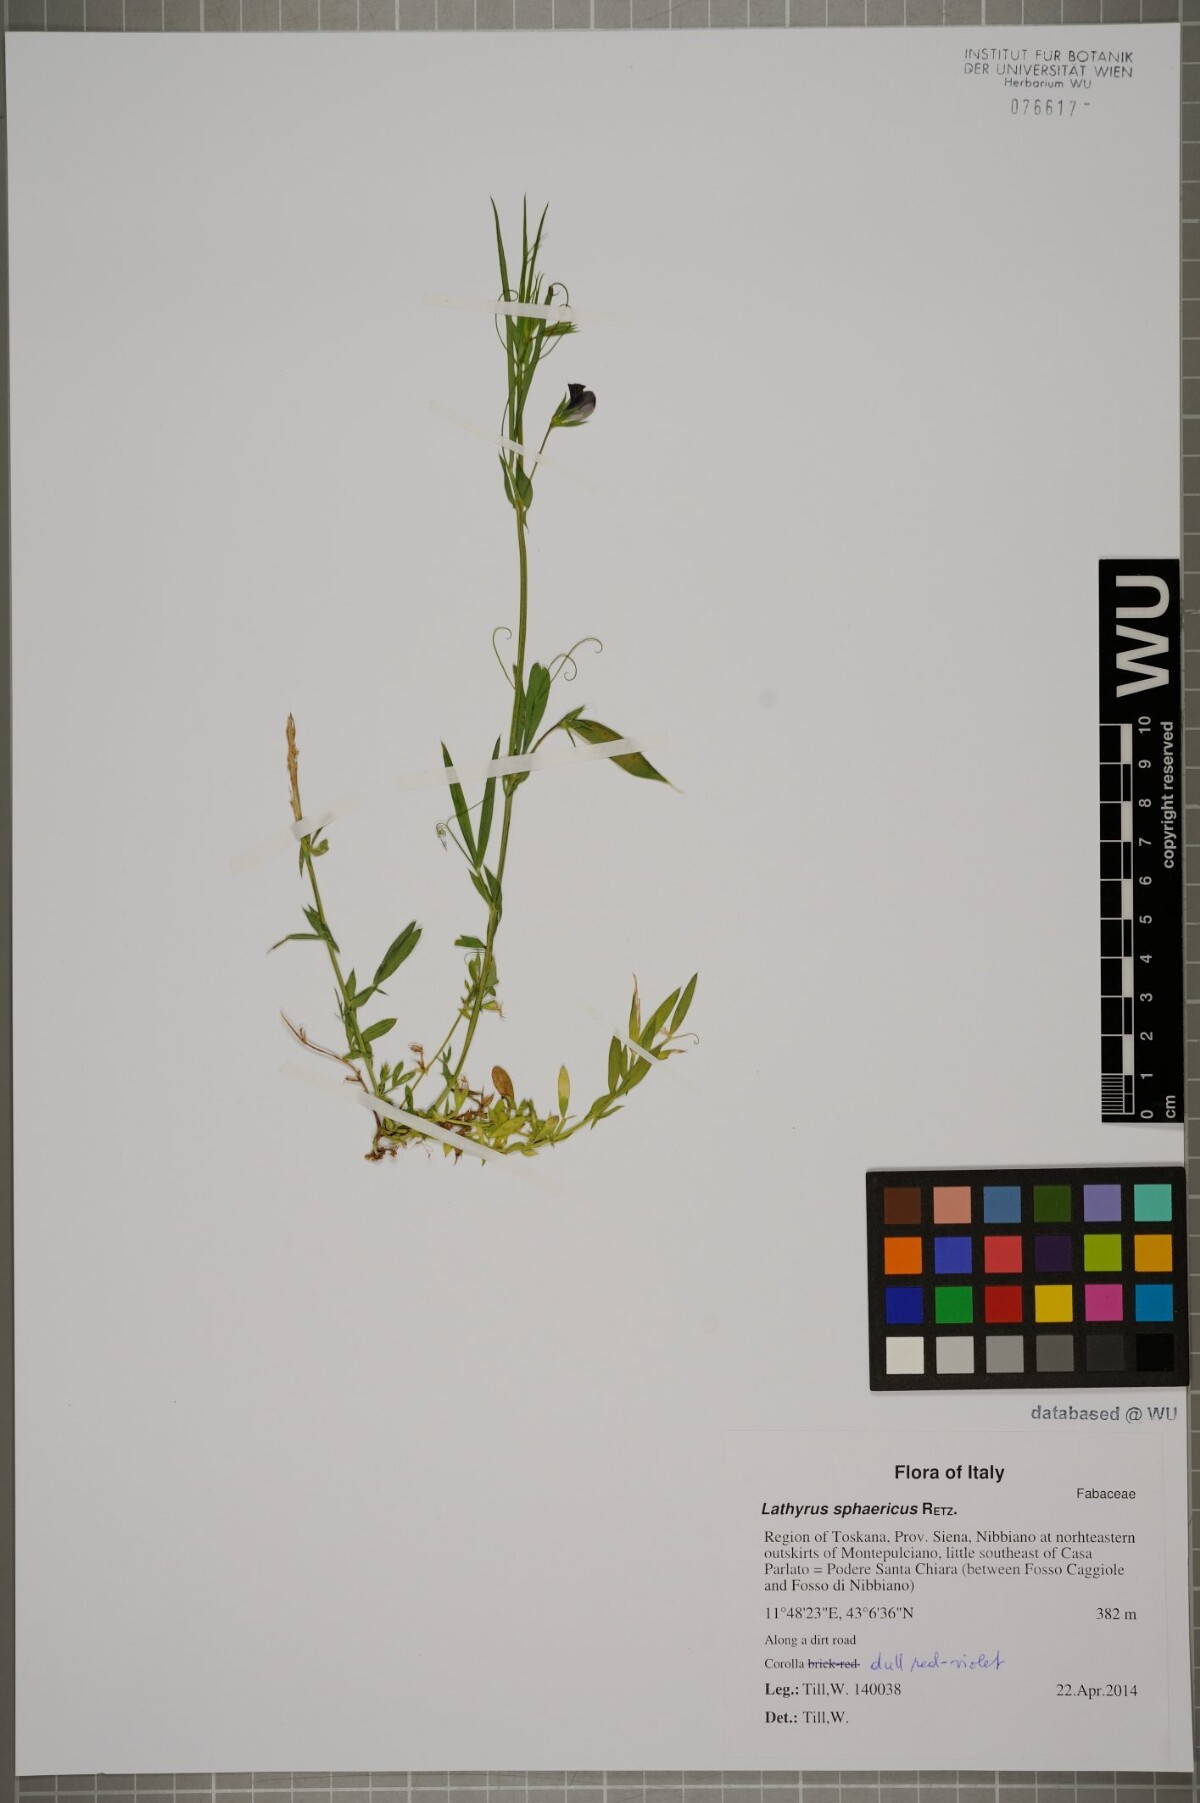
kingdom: Plantae
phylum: Tracheophyta
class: Magnoliopsida
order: Fabales
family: Fabaceae
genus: Lathyrus
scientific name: Lathyrus sphaericus
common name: Grass pea
